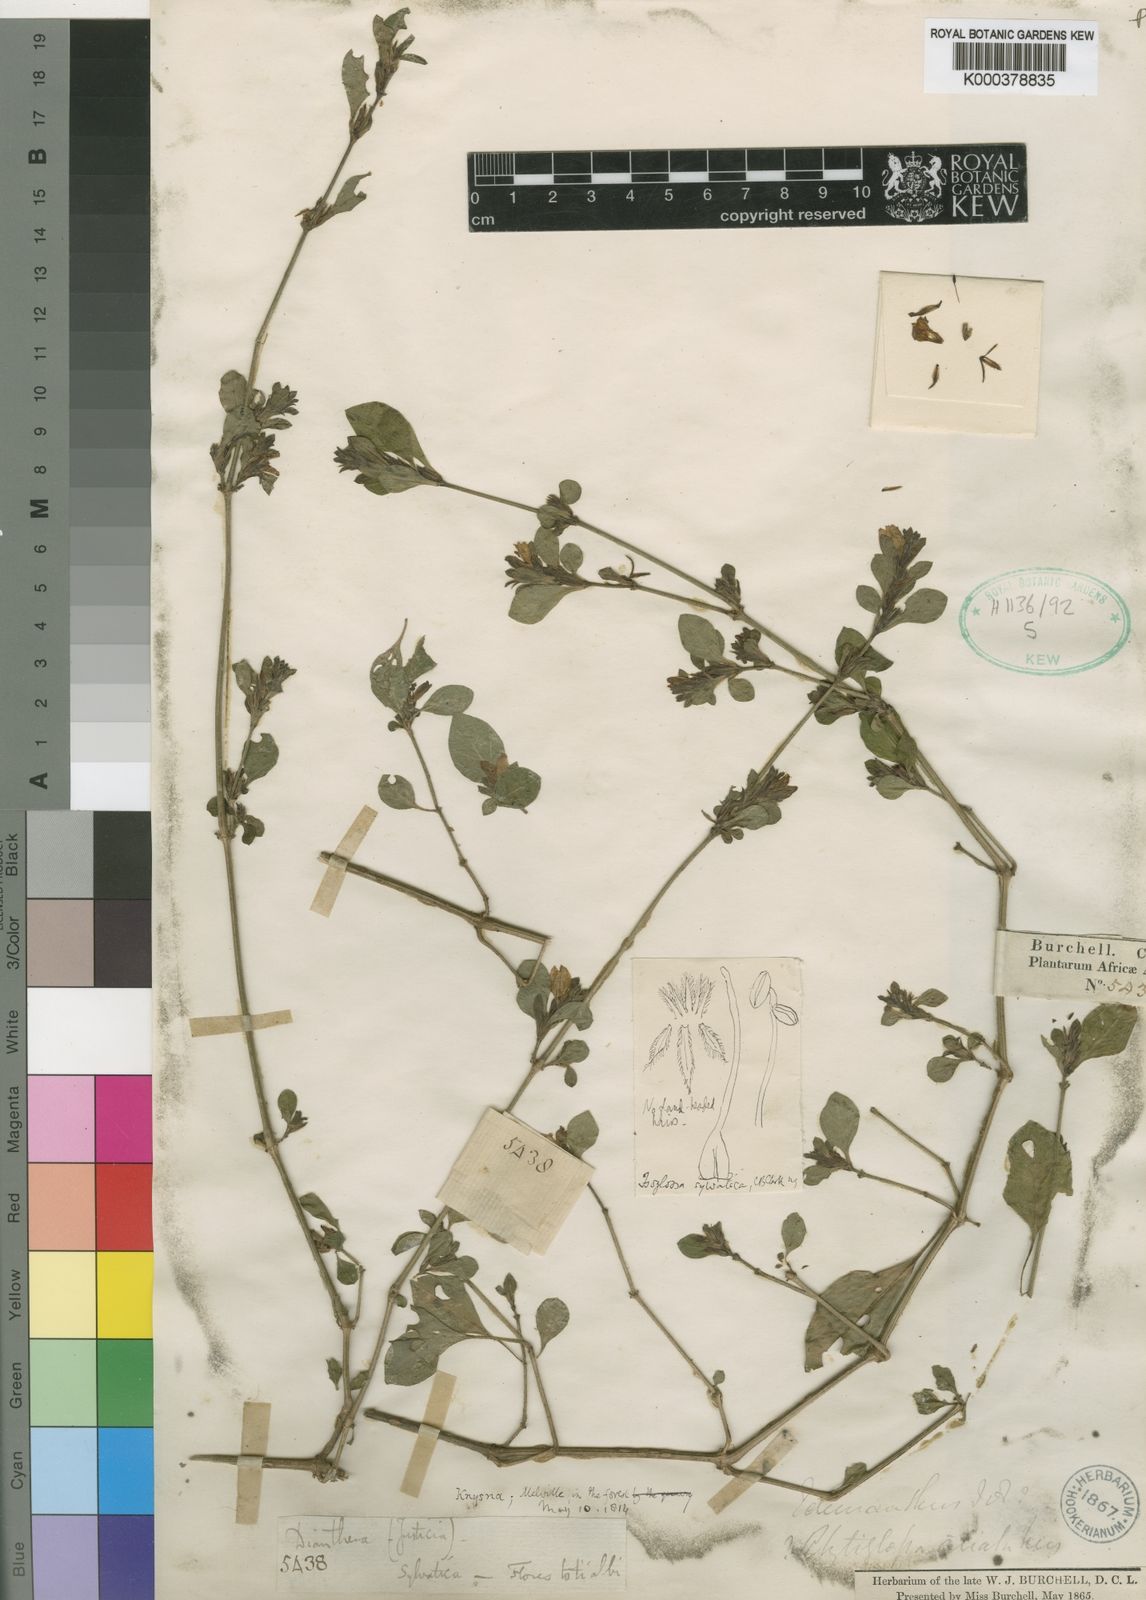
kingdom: Plantae
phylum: Tracheophyta
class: Magnoliopsida
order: Lamiales
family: Acanthaceae
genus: Isoglossa
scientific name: Isoglossa
